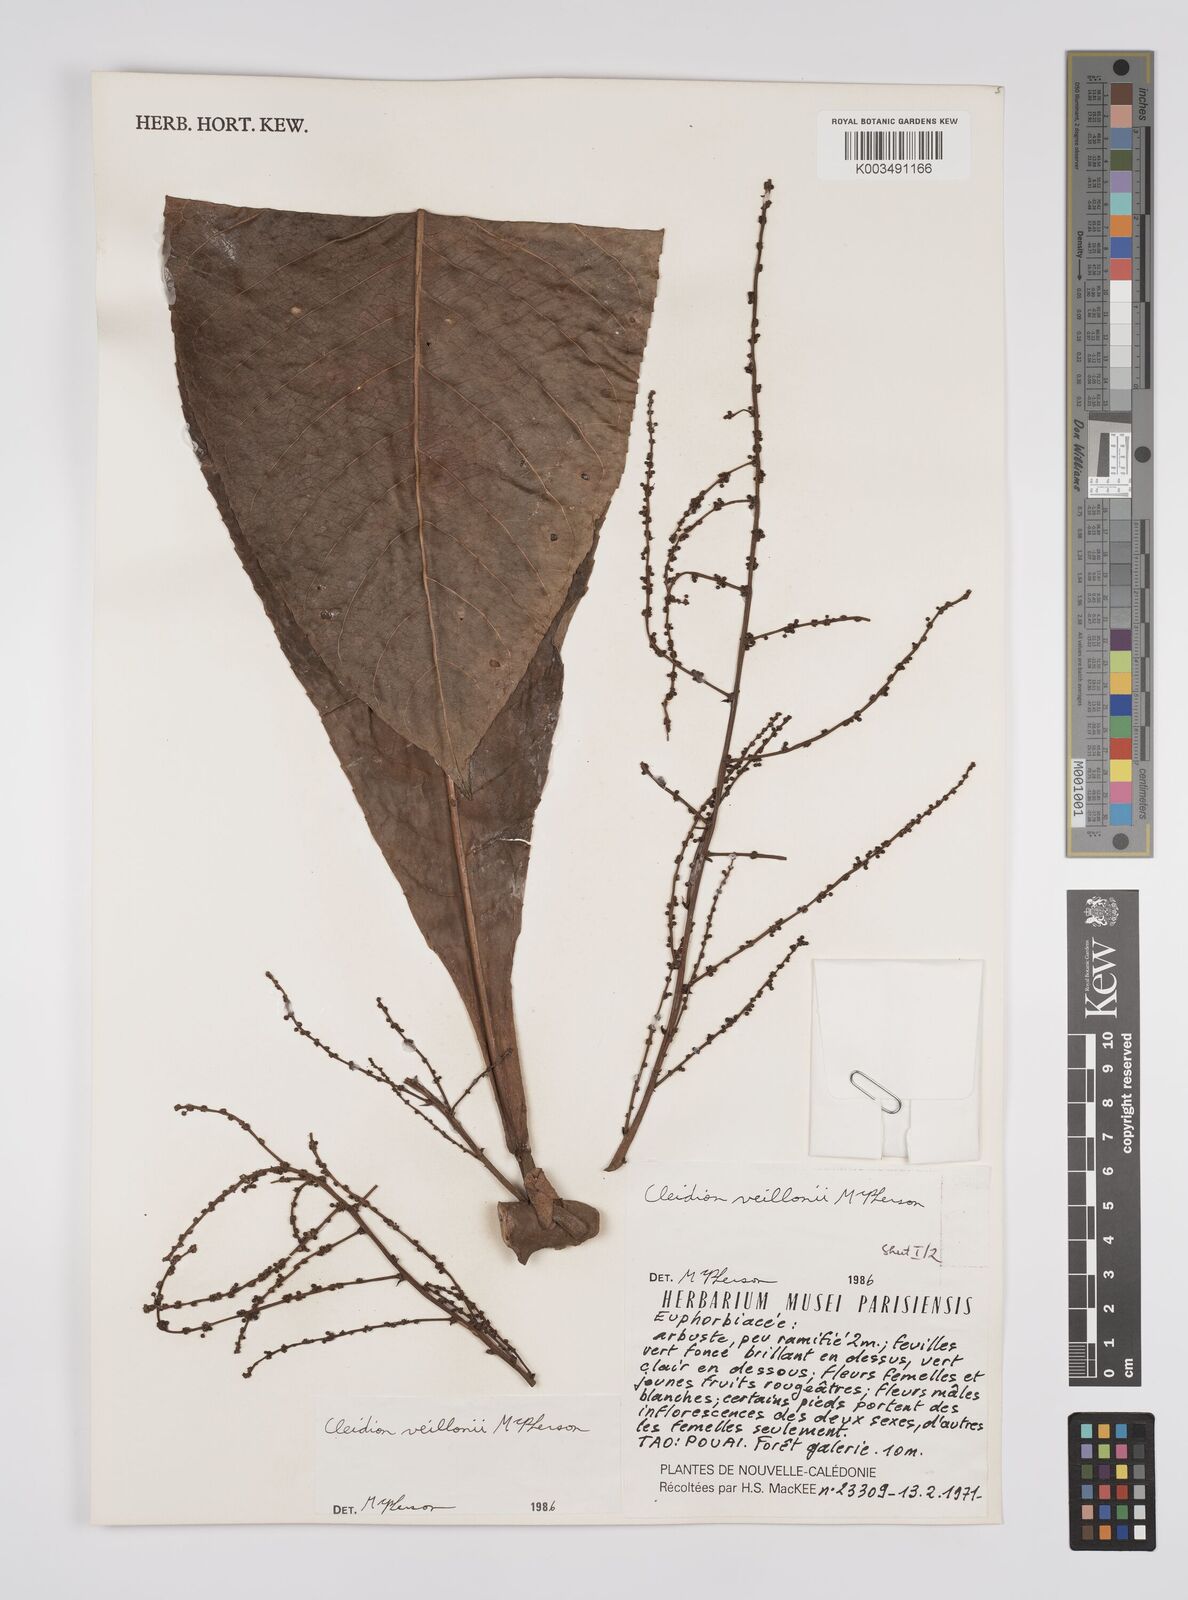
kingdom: Plantae
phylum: Tracheophyta
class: Magnoliopsida
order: Malpighiales
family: Euphorbiaceae
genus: Cleidion
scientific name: Cleidion veillonii
